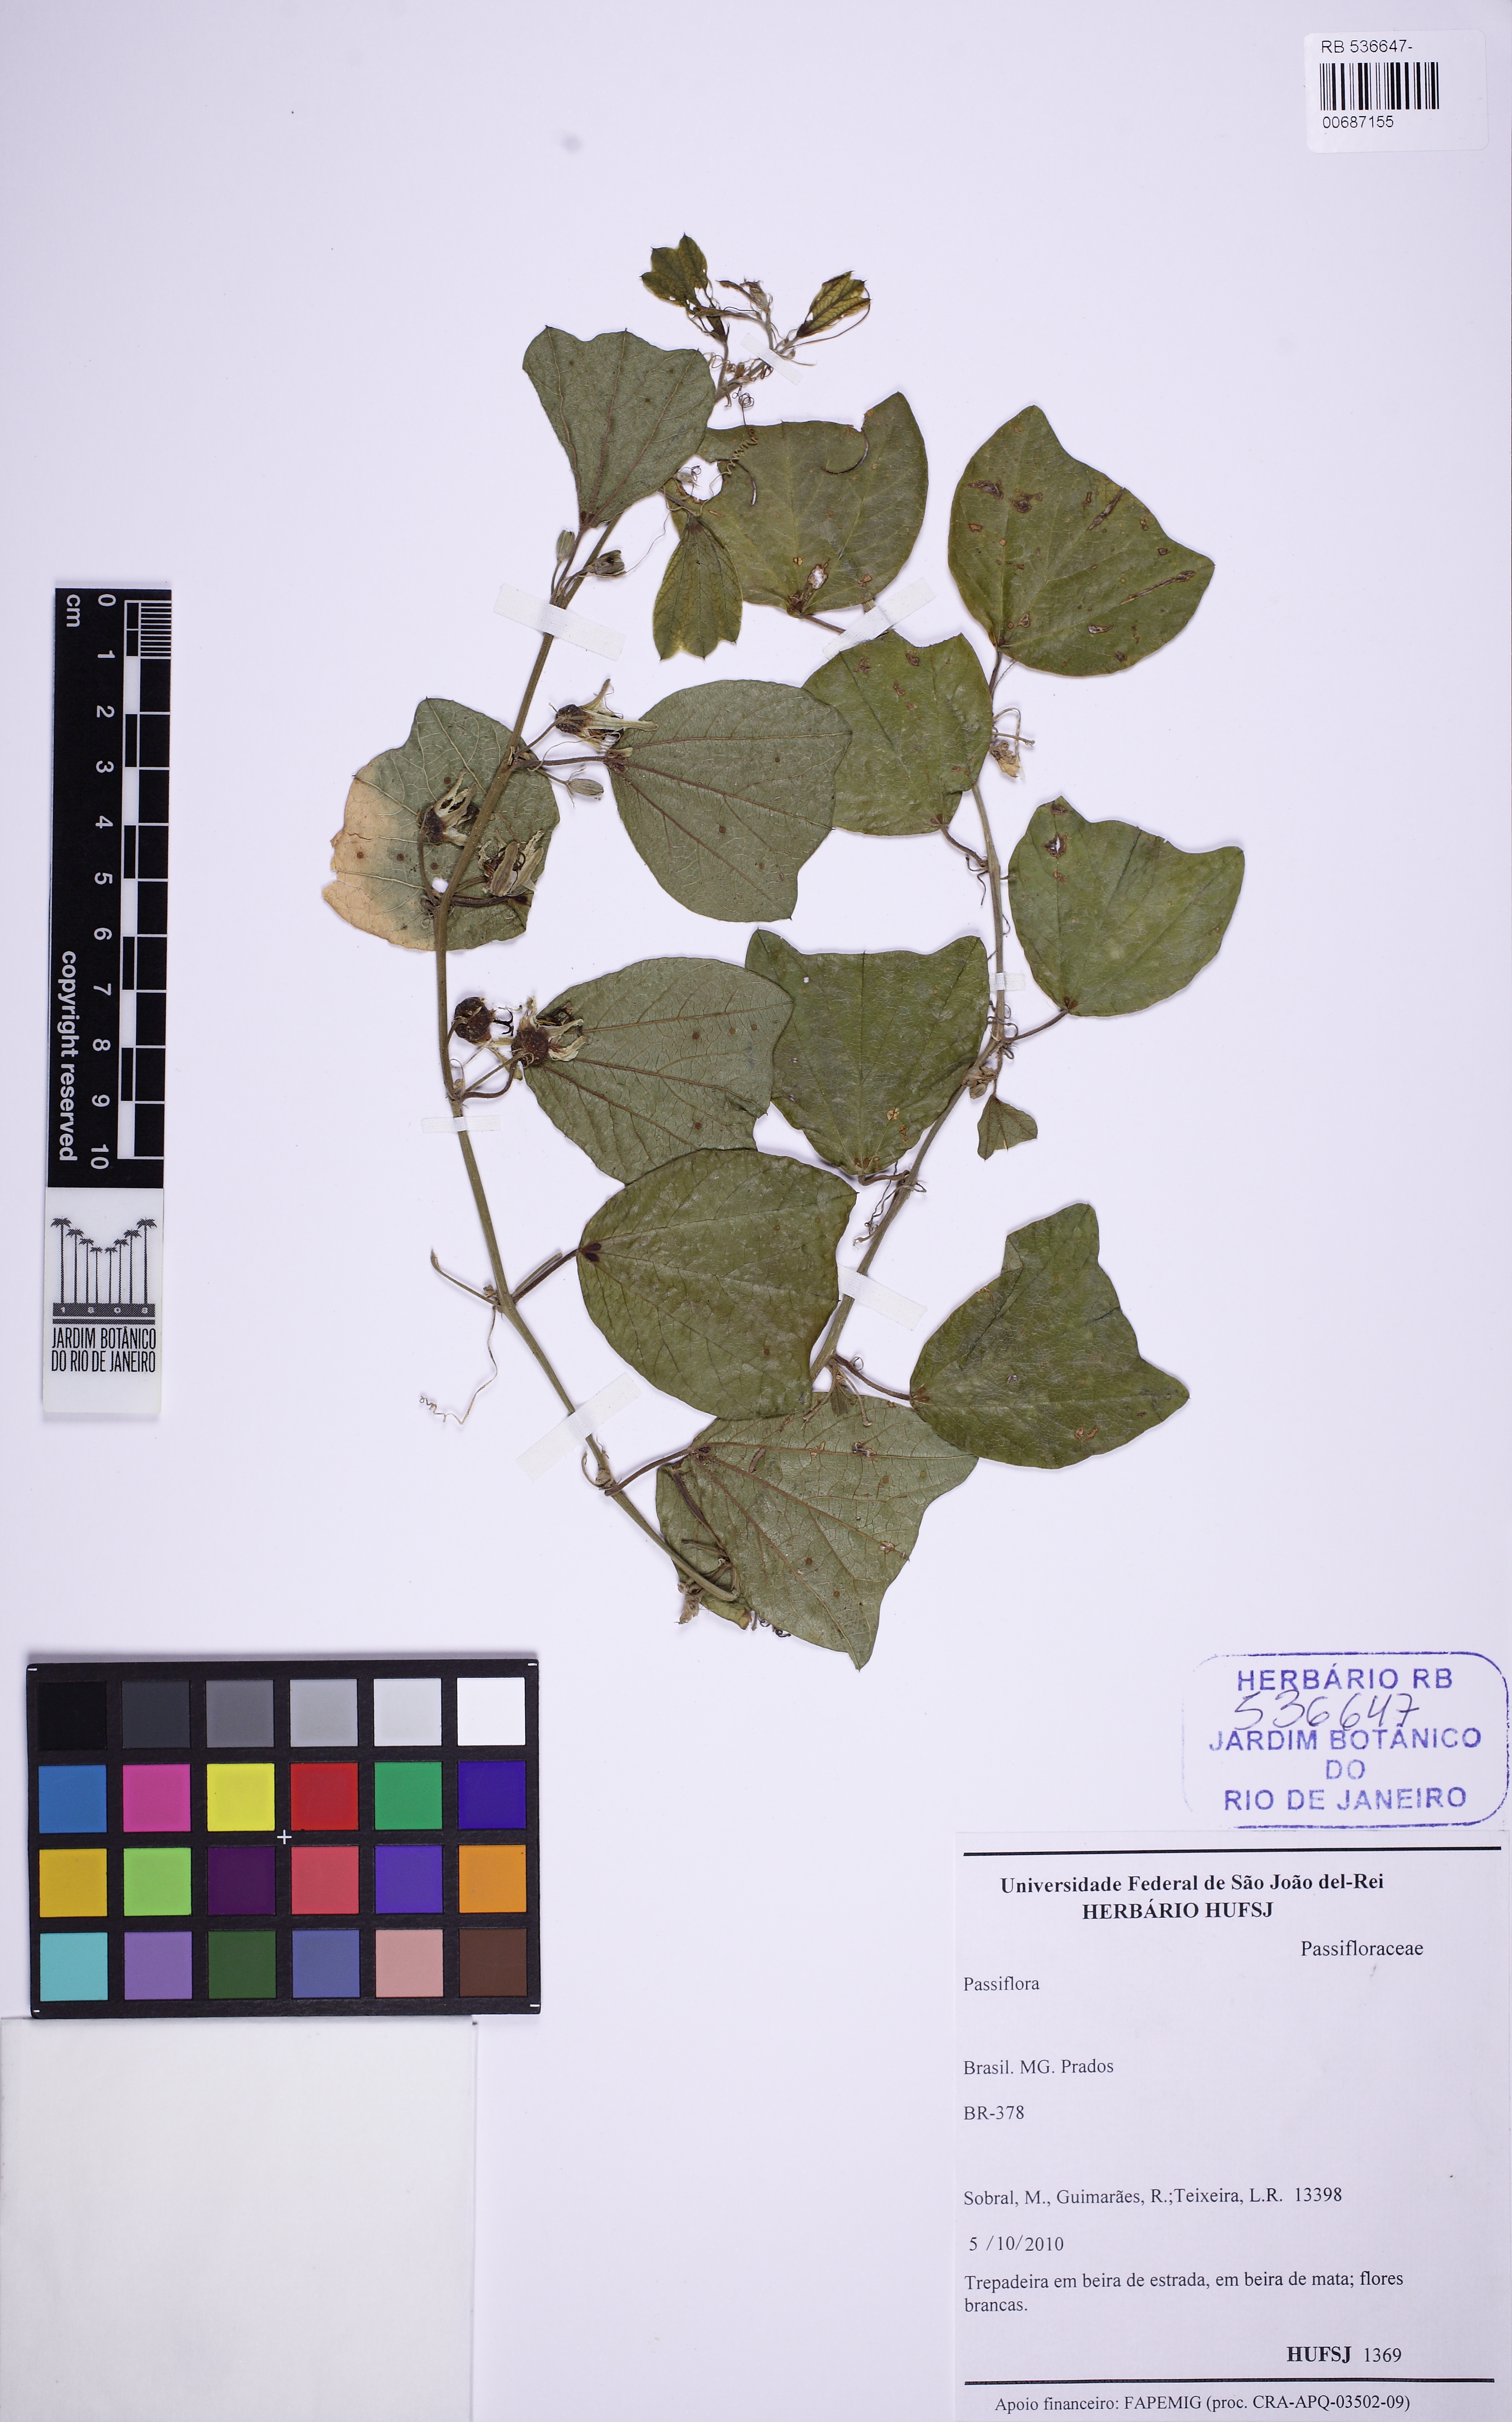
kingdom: Plantae
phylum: Tracheophyta
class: Magnoliopsida
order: Malpighiales
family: Passifloraceae
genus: Passiflora
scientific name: Passiflora
